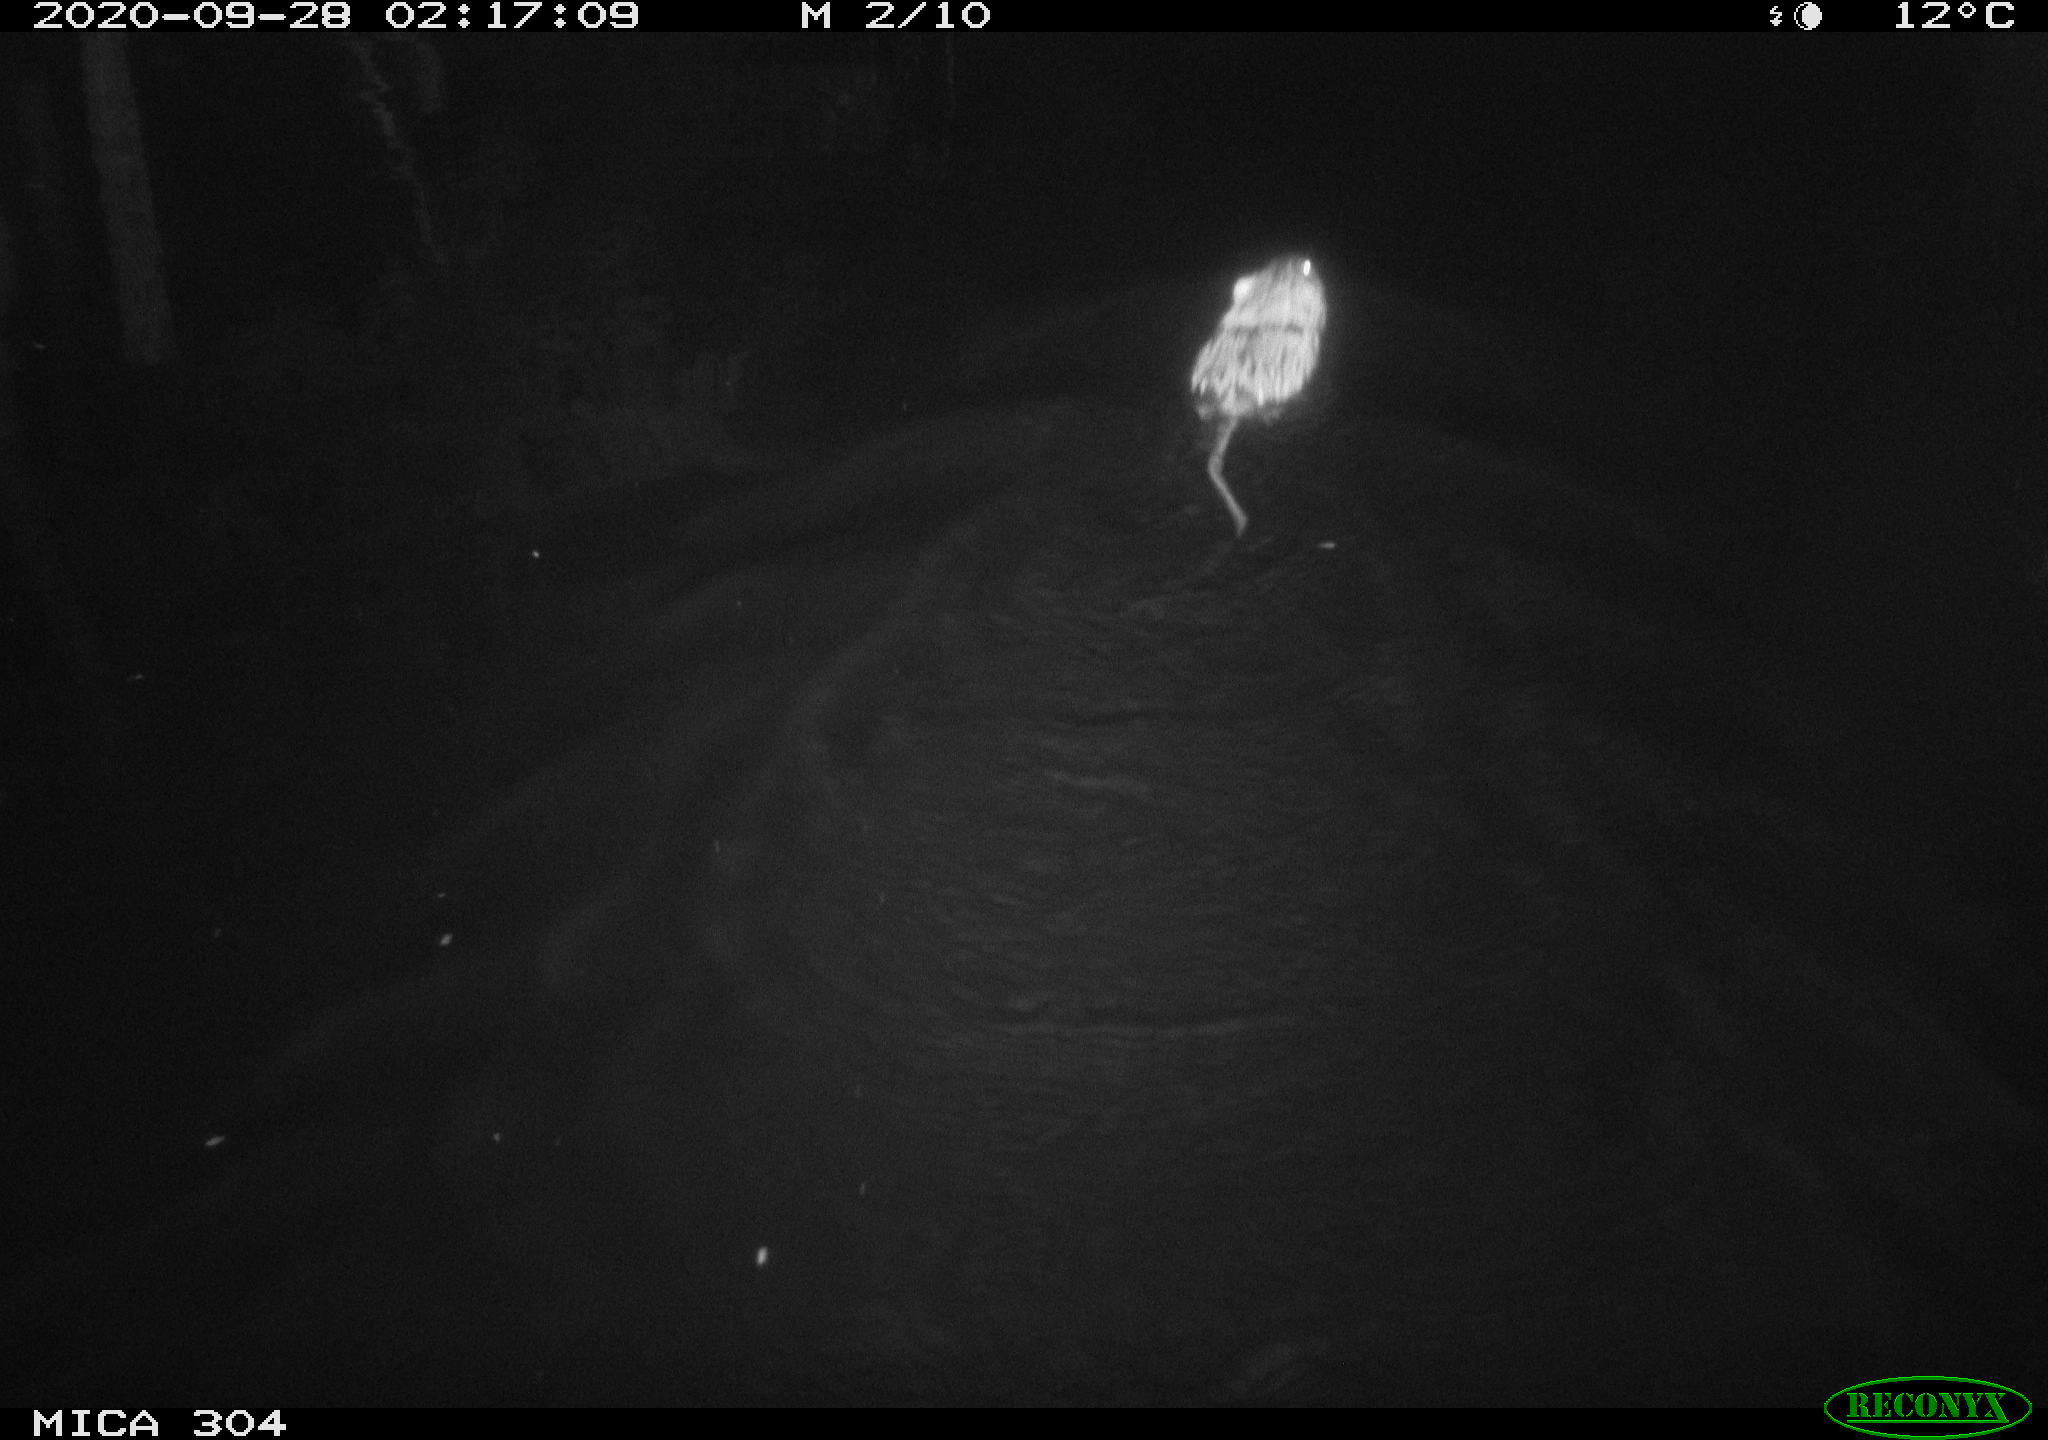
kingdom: Animalia
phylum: Chordata
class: Mammalia
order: Rodentia
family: Cricetidae
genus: Ondatra
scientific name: Ondatra zibethicus
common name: Muskrat
